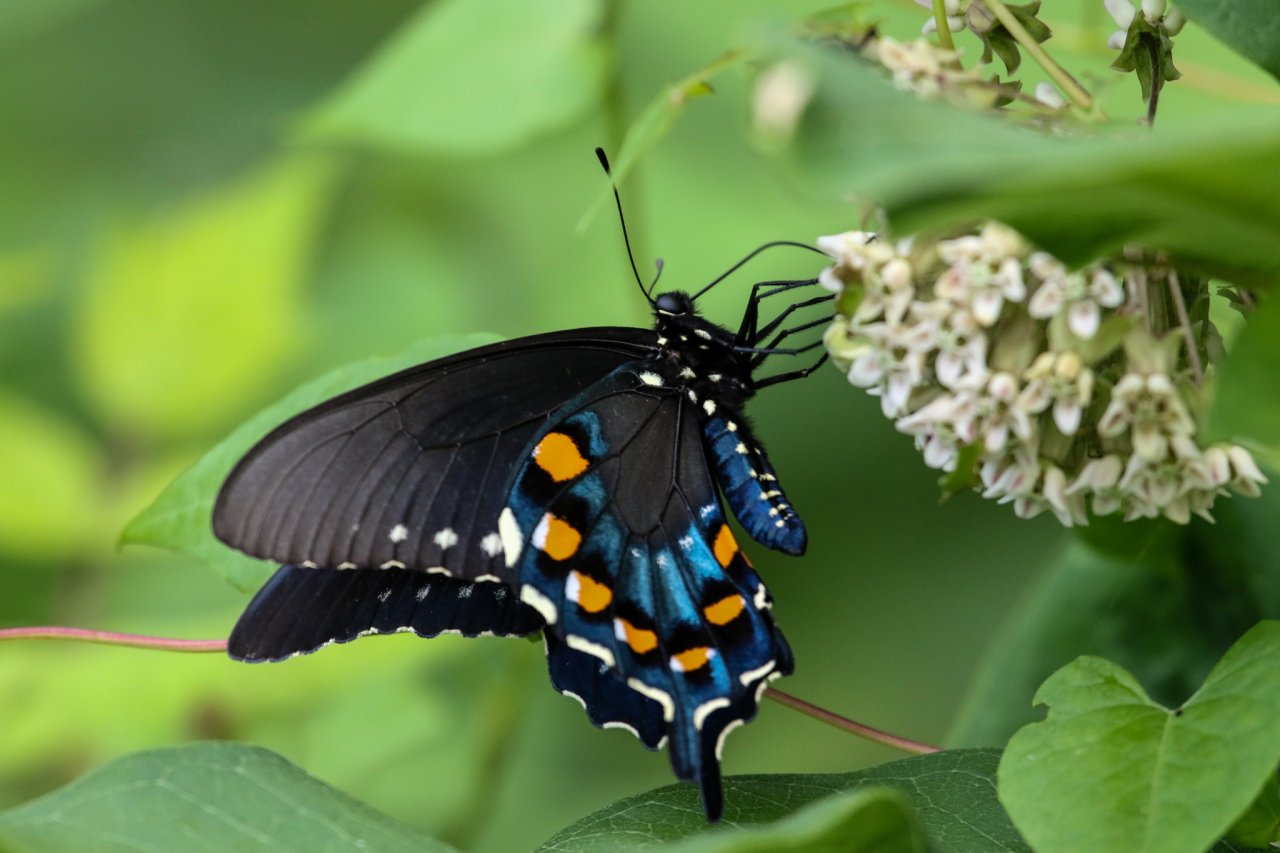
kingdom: Animalia
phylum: Arthropoda
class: Insecta
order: Lepidoptera
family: Papilionidae
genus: Battus
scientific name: Battus philenor
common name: Pipevine Swallowtail
